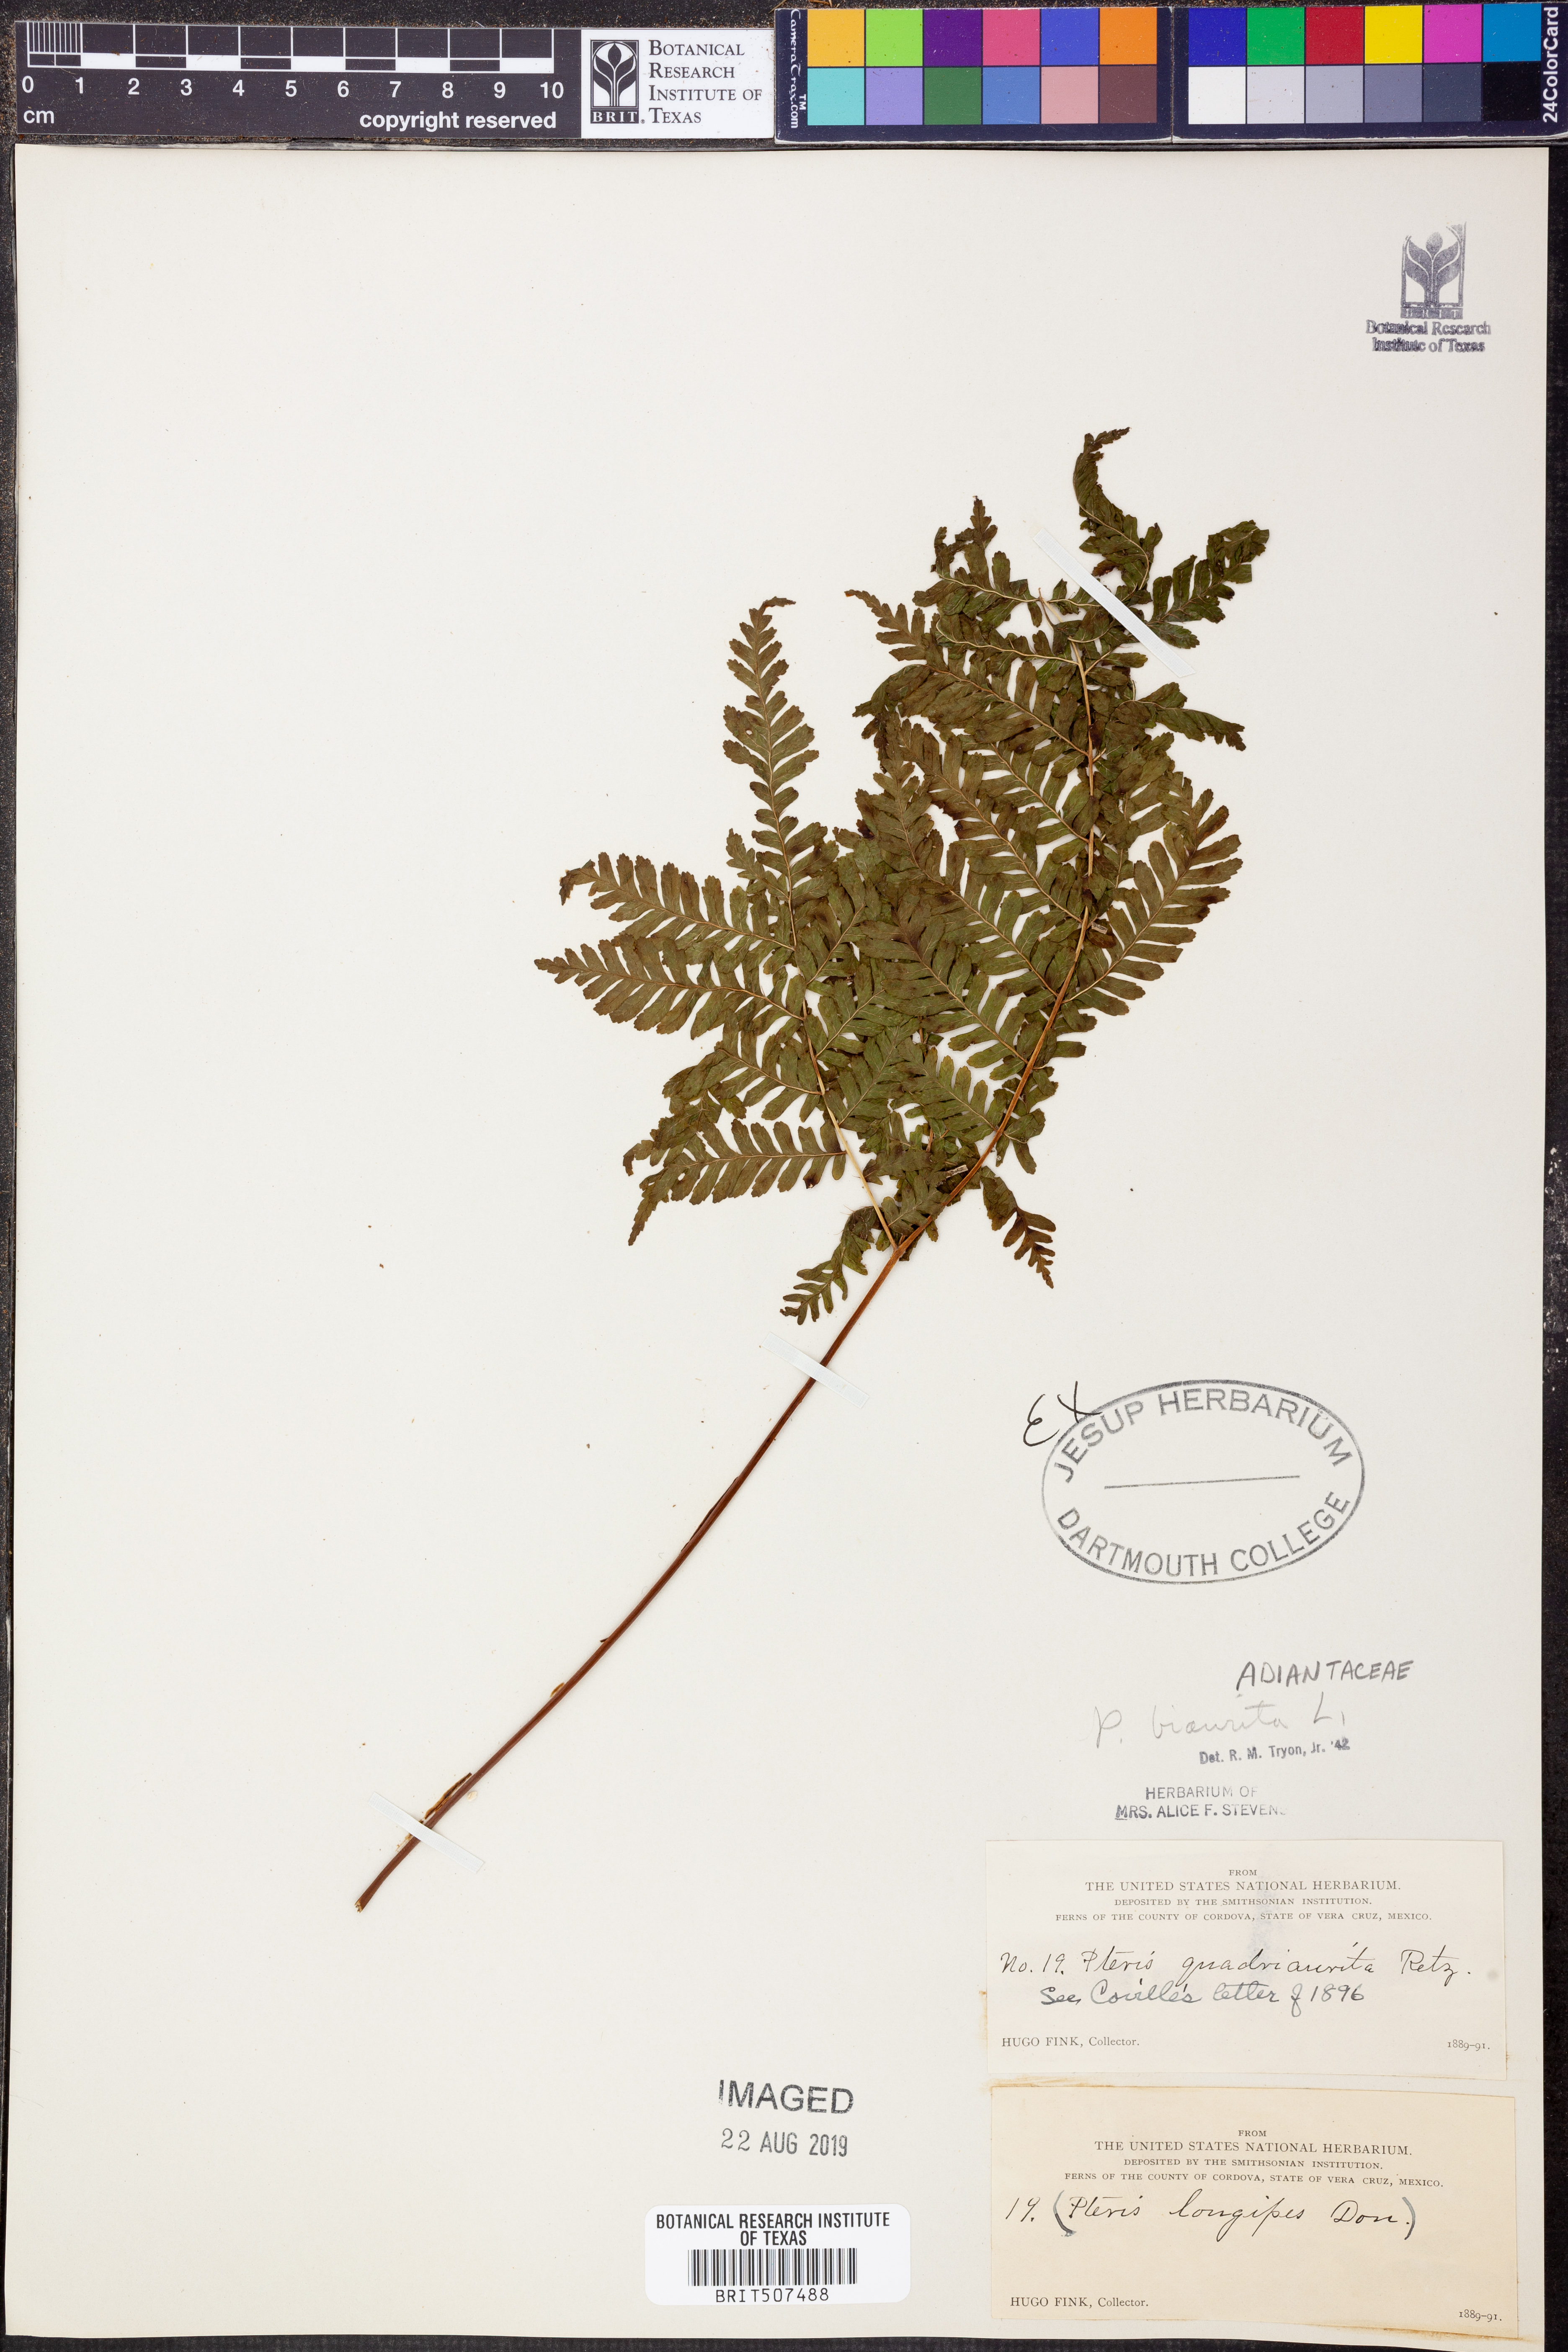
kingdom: Plantae
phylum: Tracheophyta
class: Polypodiopsida
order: Polypodiales
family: Pteridaceae
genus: Pteris
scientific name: Pteris biaurita
